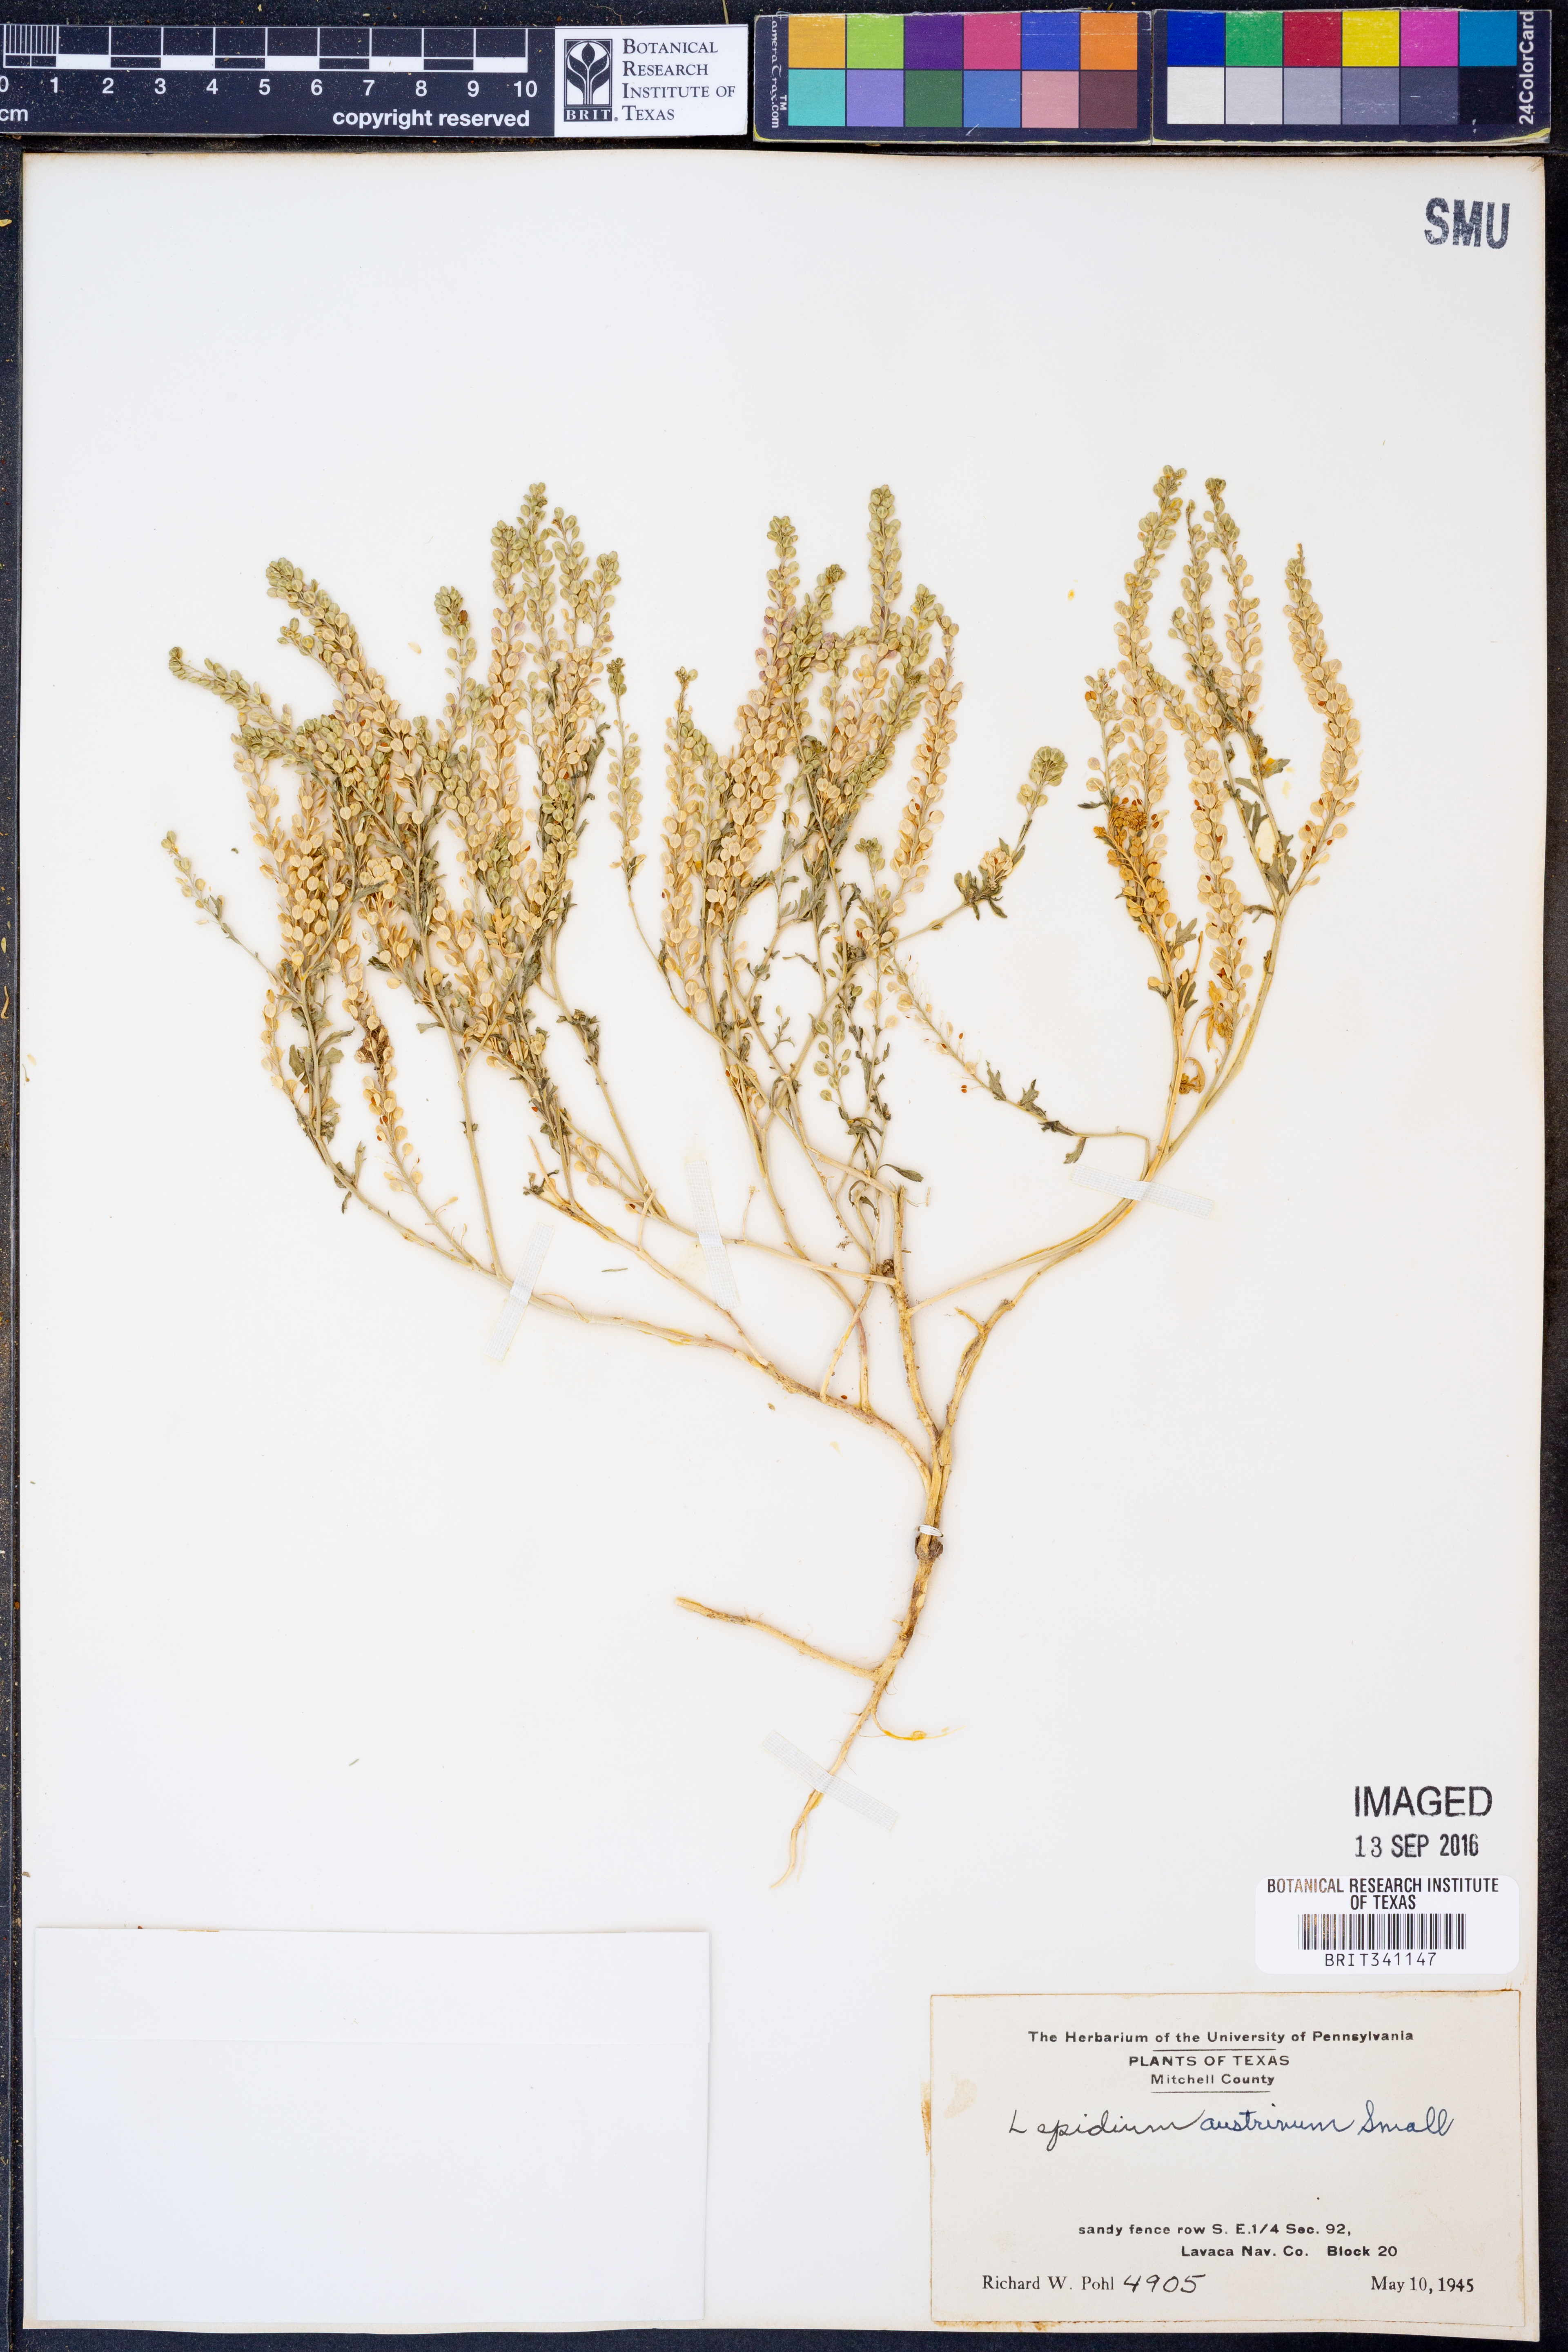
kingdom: Plantae
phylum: Tracheophyta
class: Magnoliopsida
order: Brassicales
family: Brassicaceae
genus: Lepidium
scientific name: Lepidium austrinum
